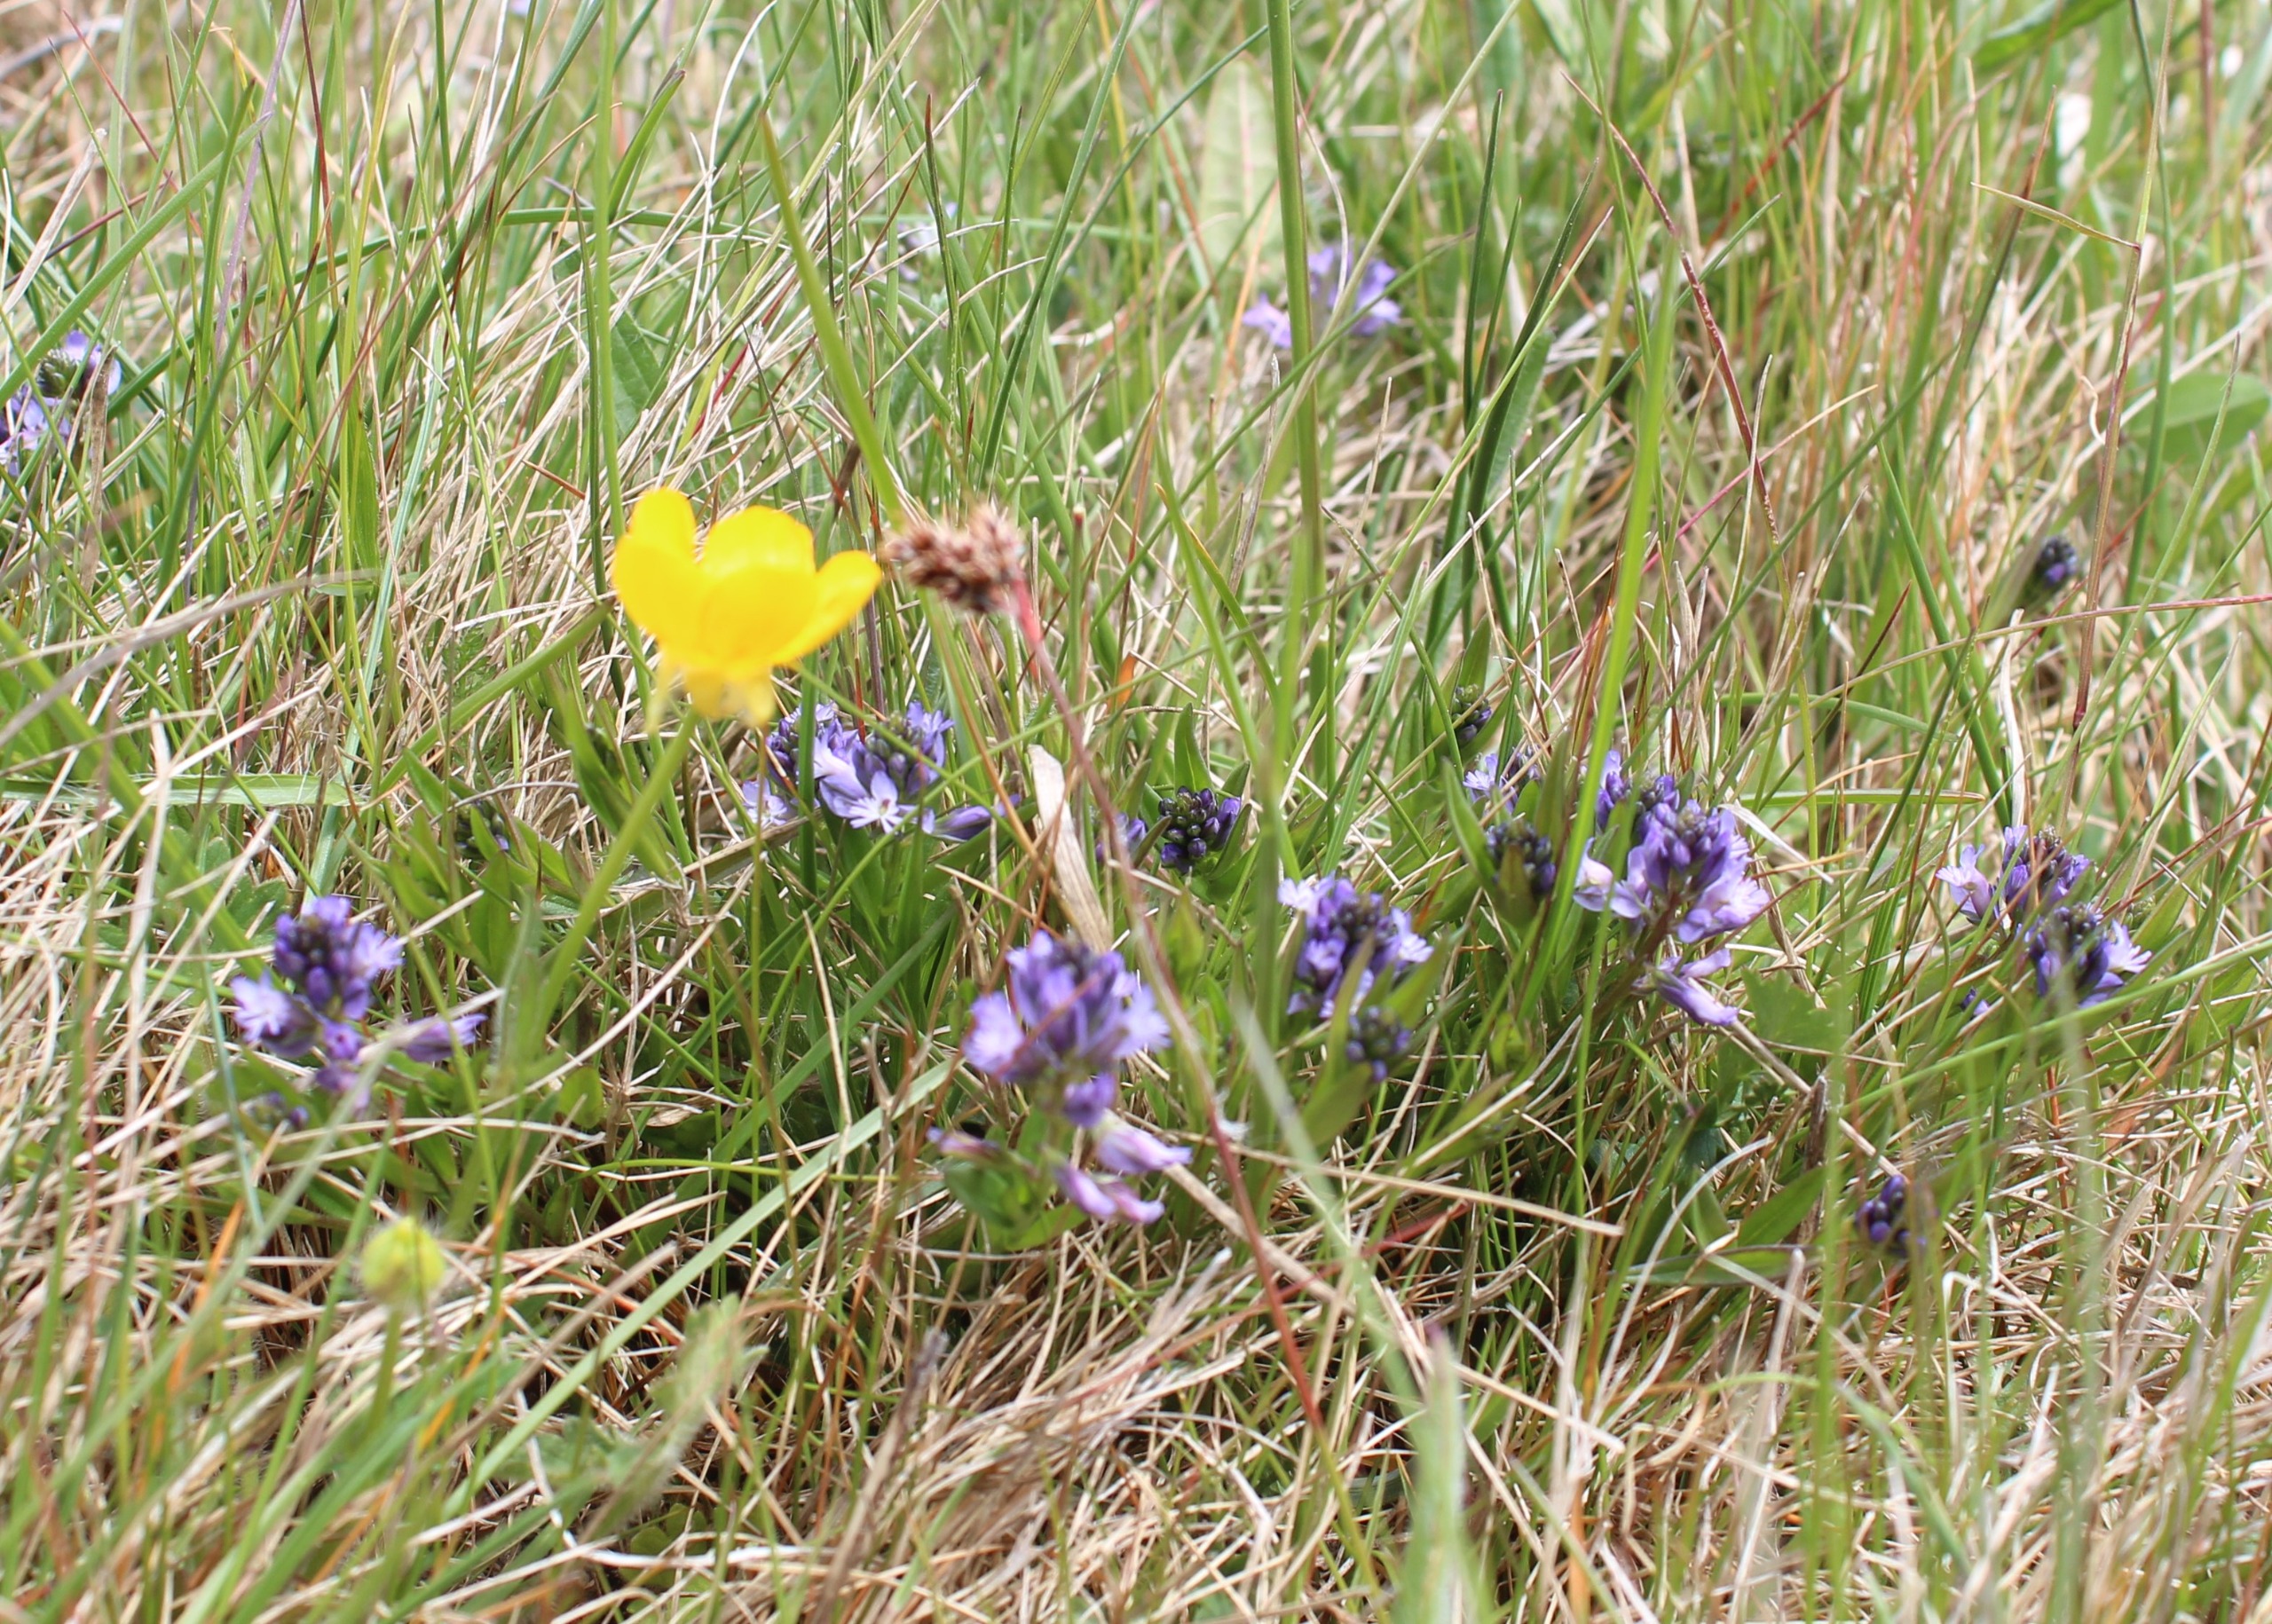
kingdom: Plantae
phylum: Tracheophyta
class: Magnoliopsida
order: Fabales
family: Polygalaceae
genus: Polygala
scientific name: Polygala vulgaris
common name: Almindelig mælkeurt
